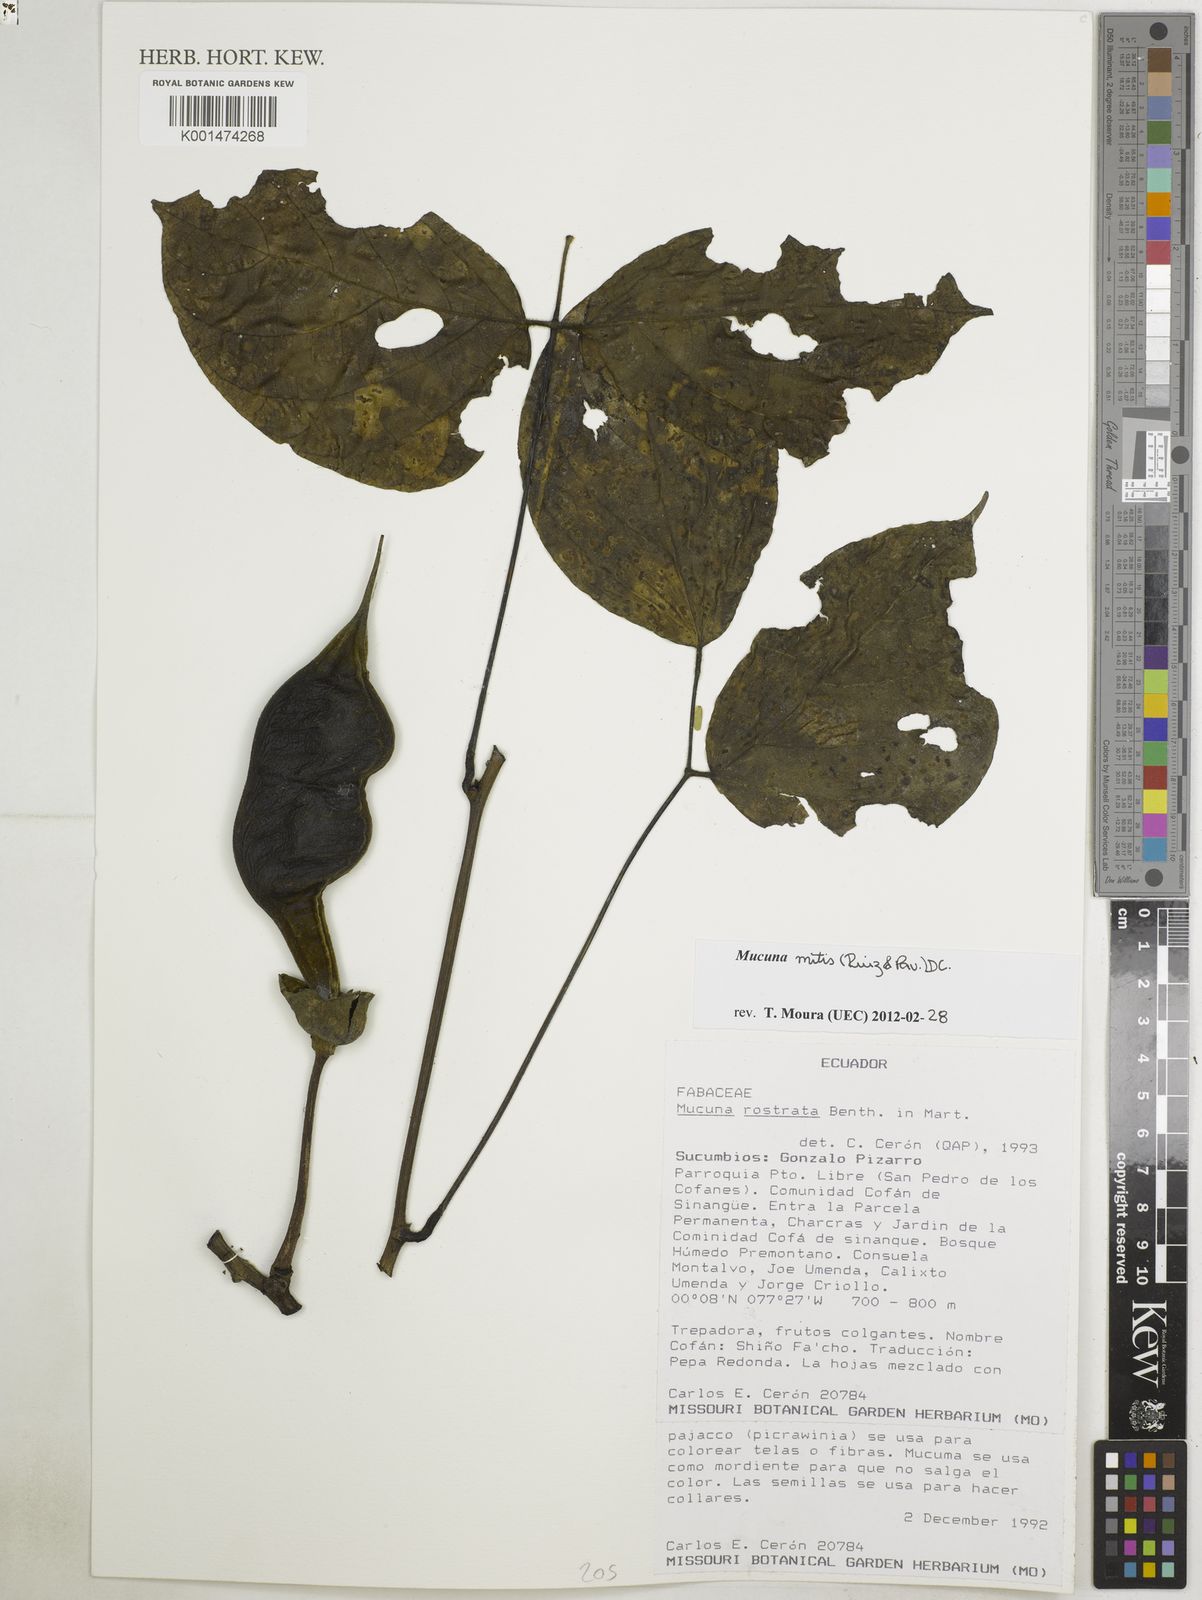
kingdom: Plantae
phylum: Tracheophyta
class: Magnoliopsida
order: Fabales
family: Fabaceae
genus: Mucuna
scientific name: Mucuna mitis
